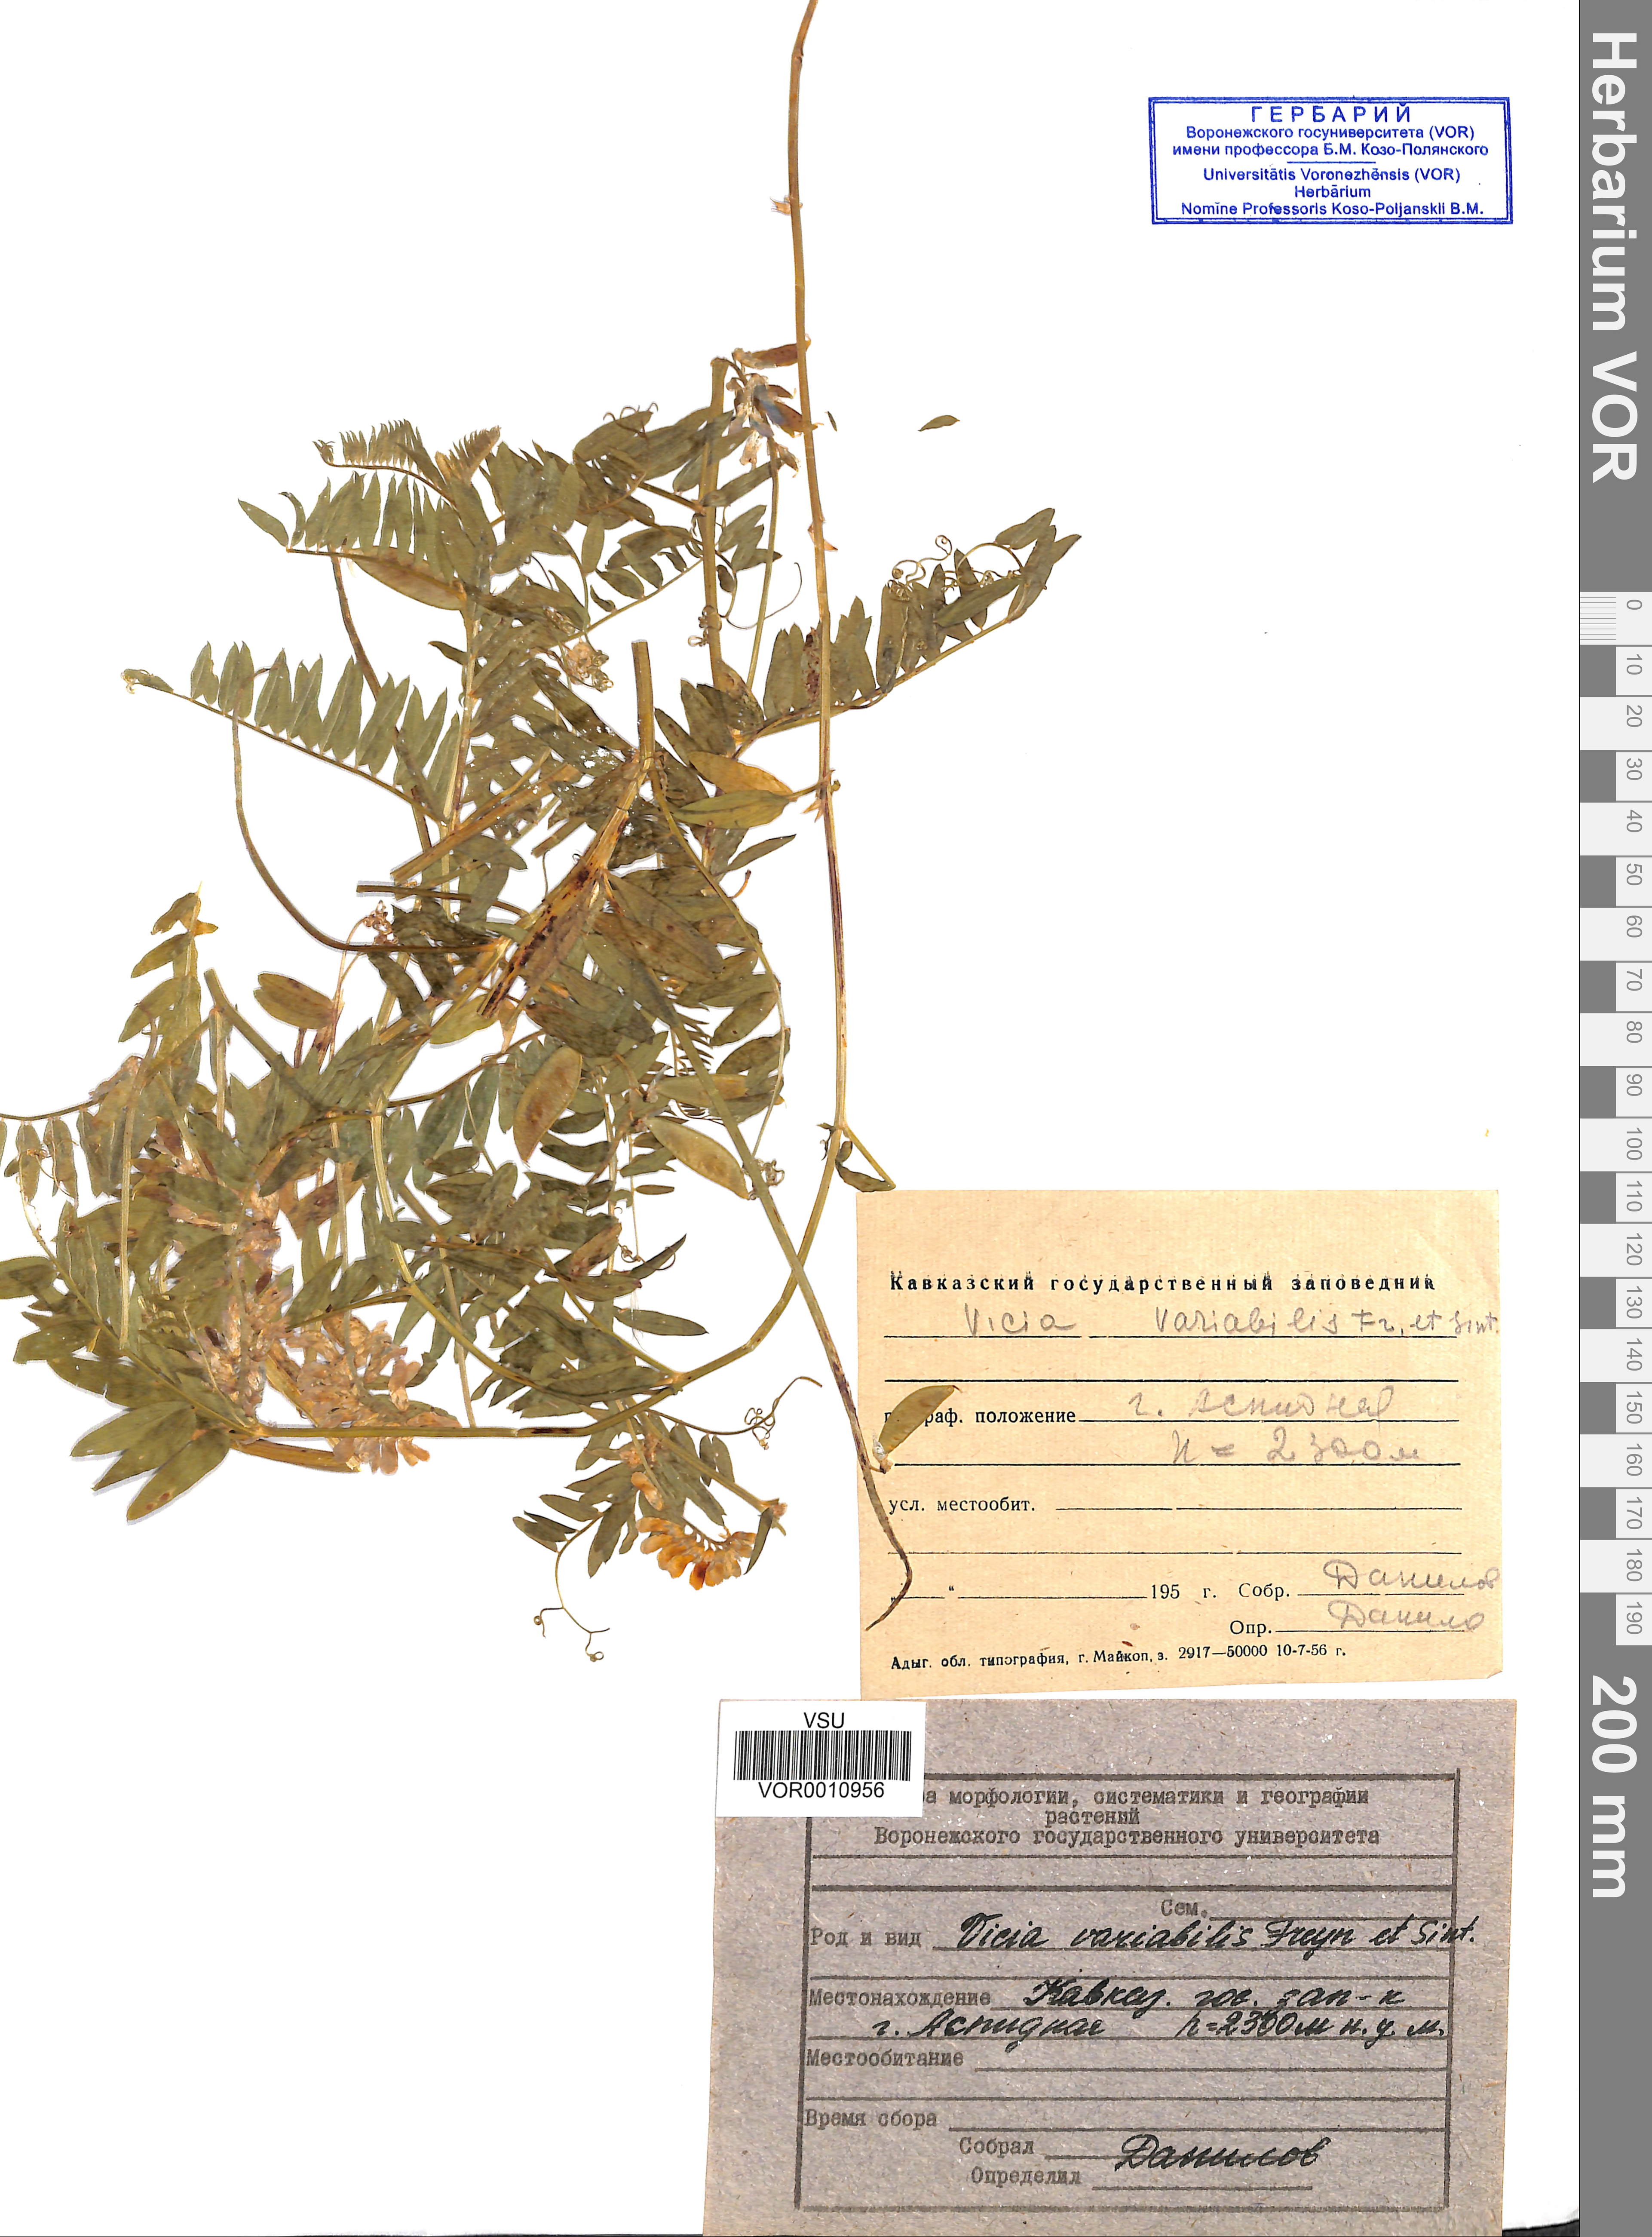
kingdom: Plantae
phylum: Tracheophyta
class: Magnoliopsida
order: Fabales
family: Fabaceae
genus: Vicia
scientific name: Vicia tenuifolia
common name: Fine-leaved vetch
